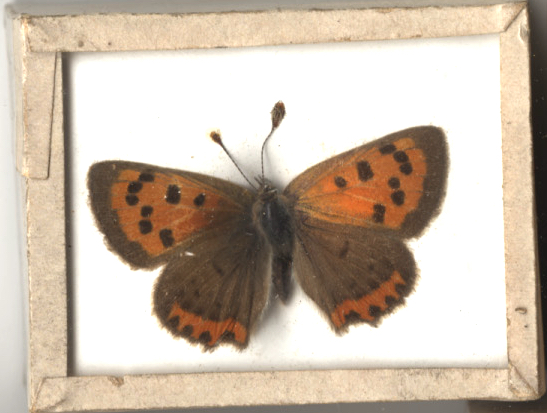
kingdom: Animalia
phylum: Arthropoda
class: Insecta
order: Lepidoptera
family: Lycaenidae
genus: Lycaena
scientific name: Lycaena phlaeas
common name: American Copper
